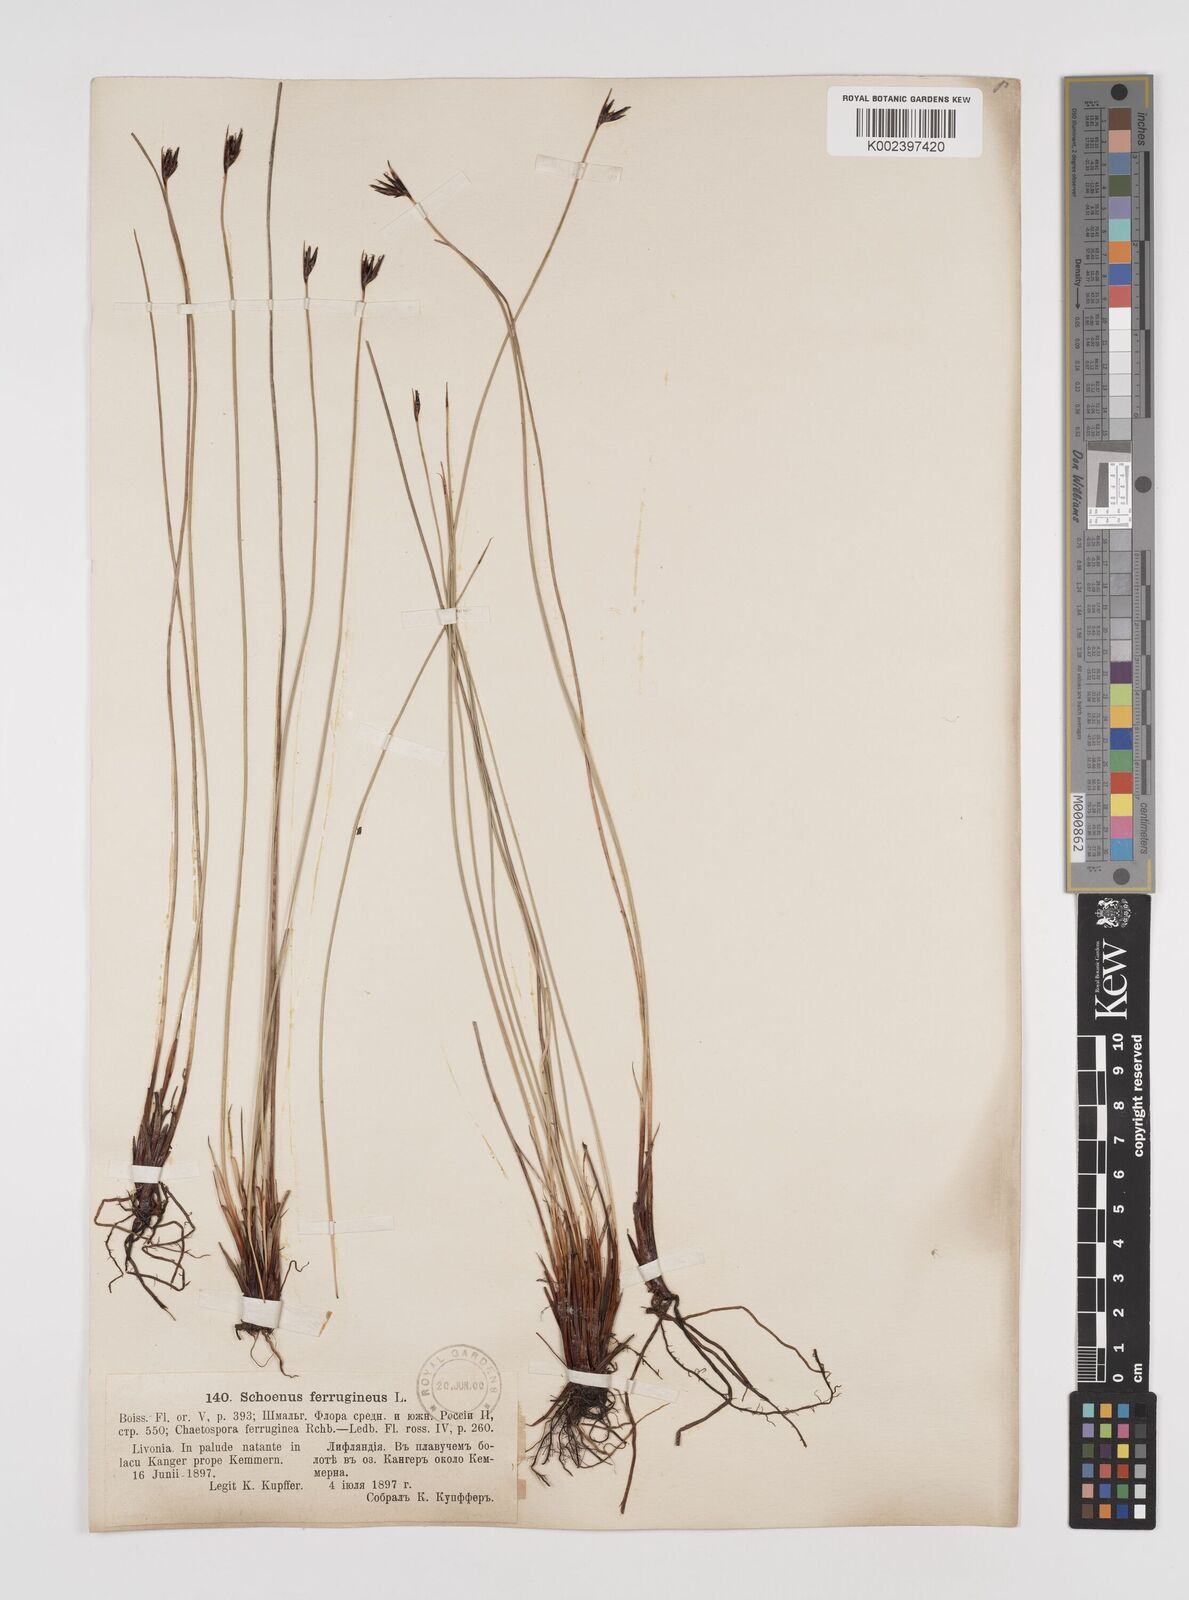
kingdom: Plantae
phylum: Tracheophyta
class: Liliopsida
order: Poales
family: Cyperaceae
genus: Schoenus
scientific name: Schoenus ferrugineus
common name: Brown bog-rush
